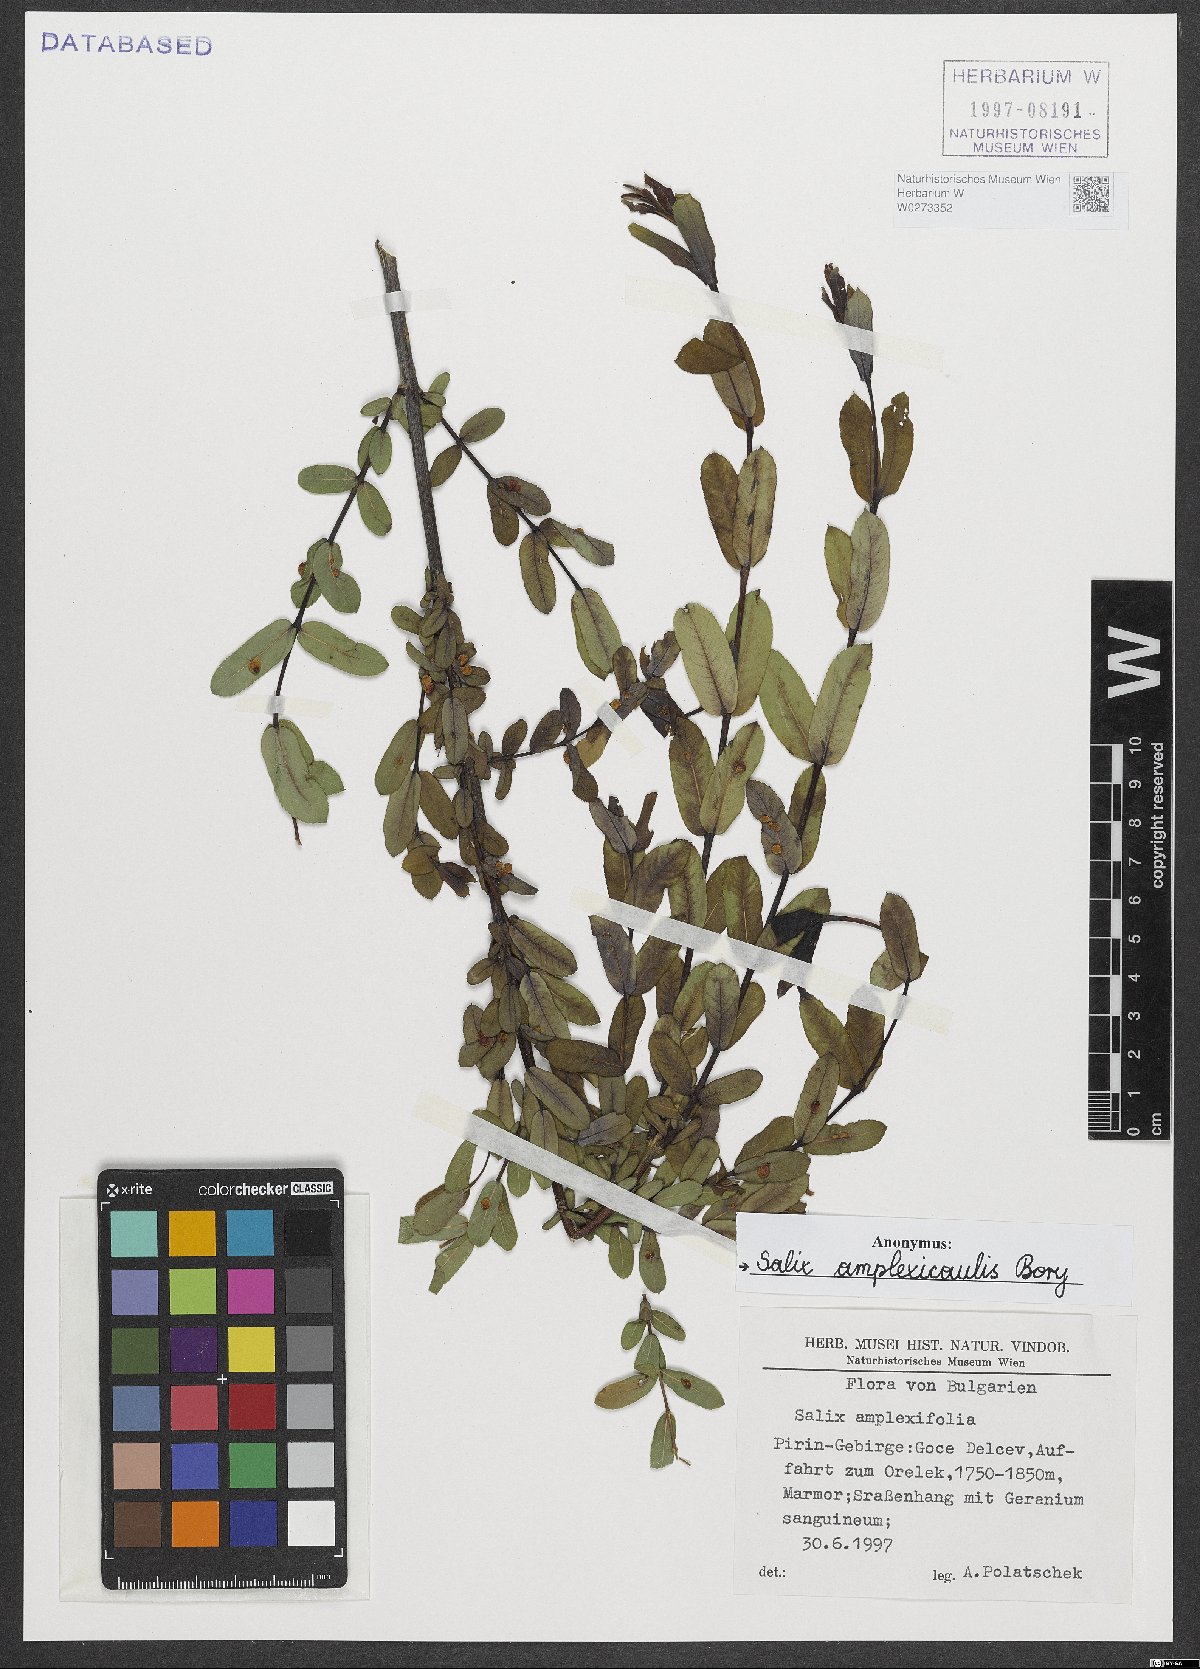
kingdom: Plantae
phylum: Tracheophyta
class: Magnoliopsida
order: Malpighiales
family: Salicaceae
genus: Salix
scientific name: Salix amplexicaulis
